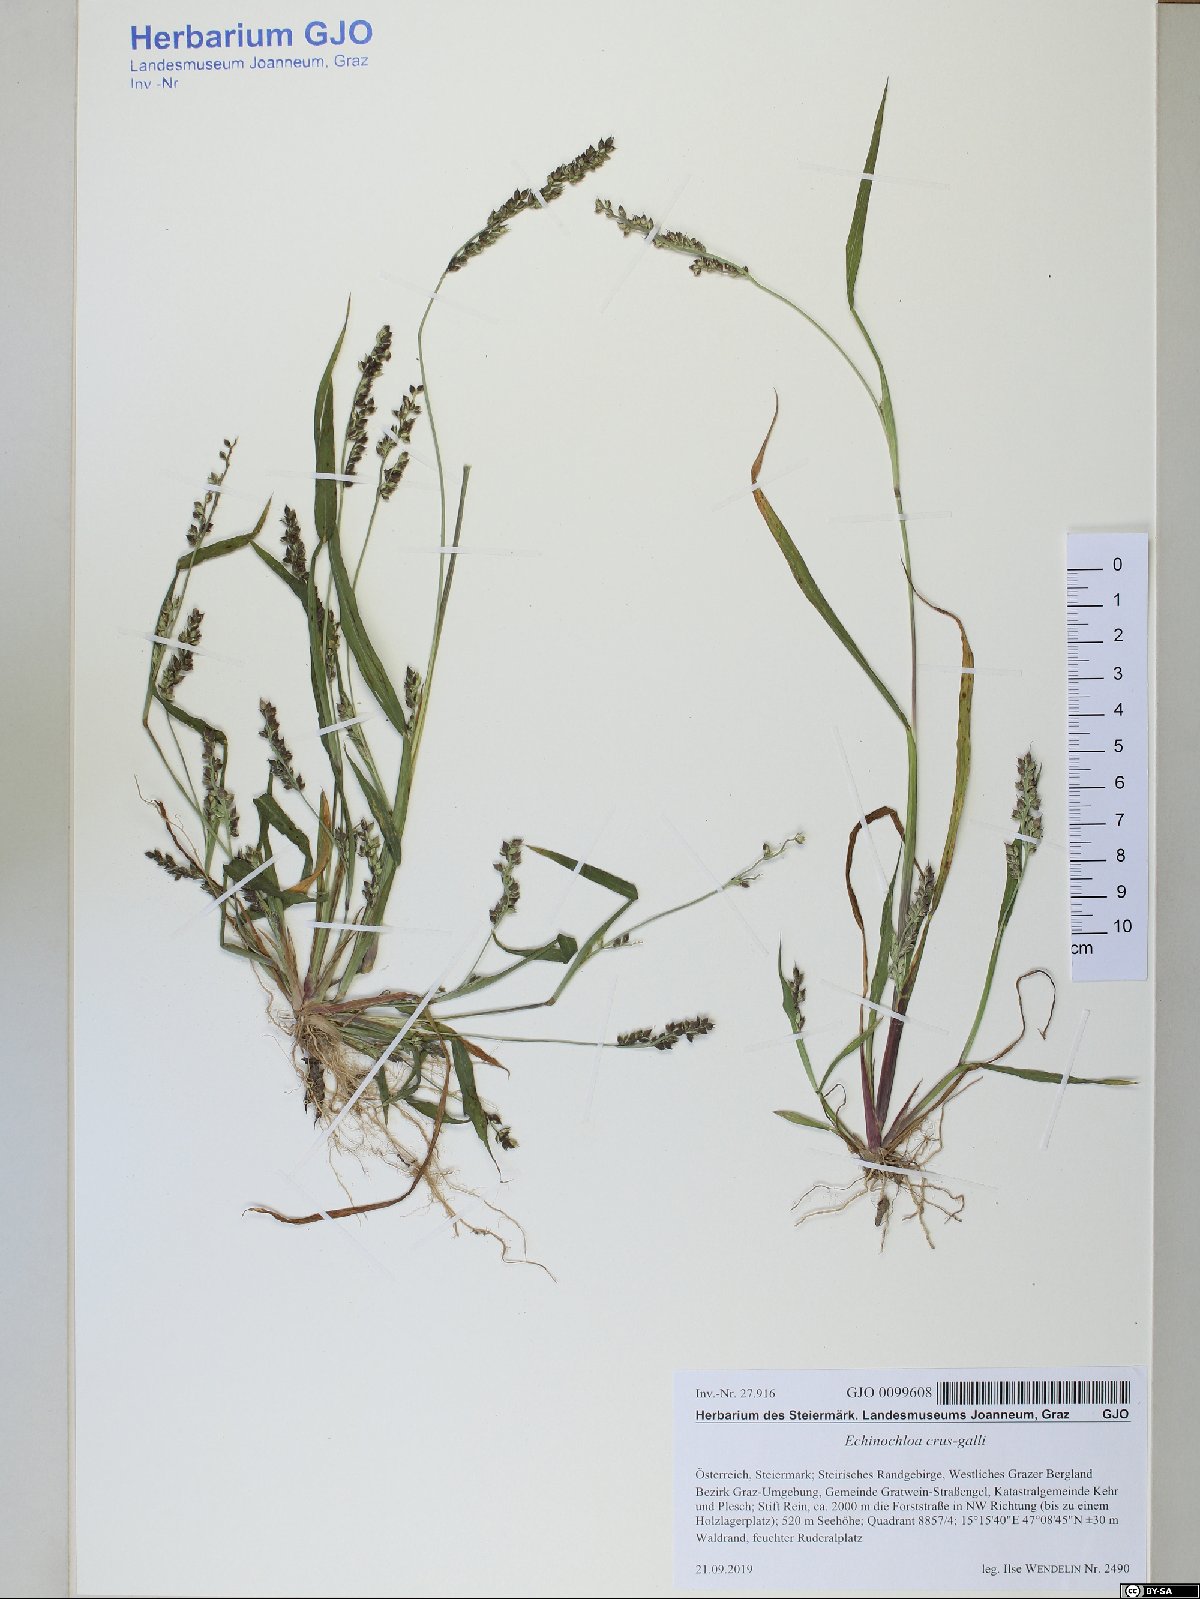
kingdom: Plantae
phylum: Tracheophyta
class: Liliopsida
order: Poales
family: Poaceae
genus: Echinochloa
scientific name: Echinochloa crus-galli
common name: Cockspur
